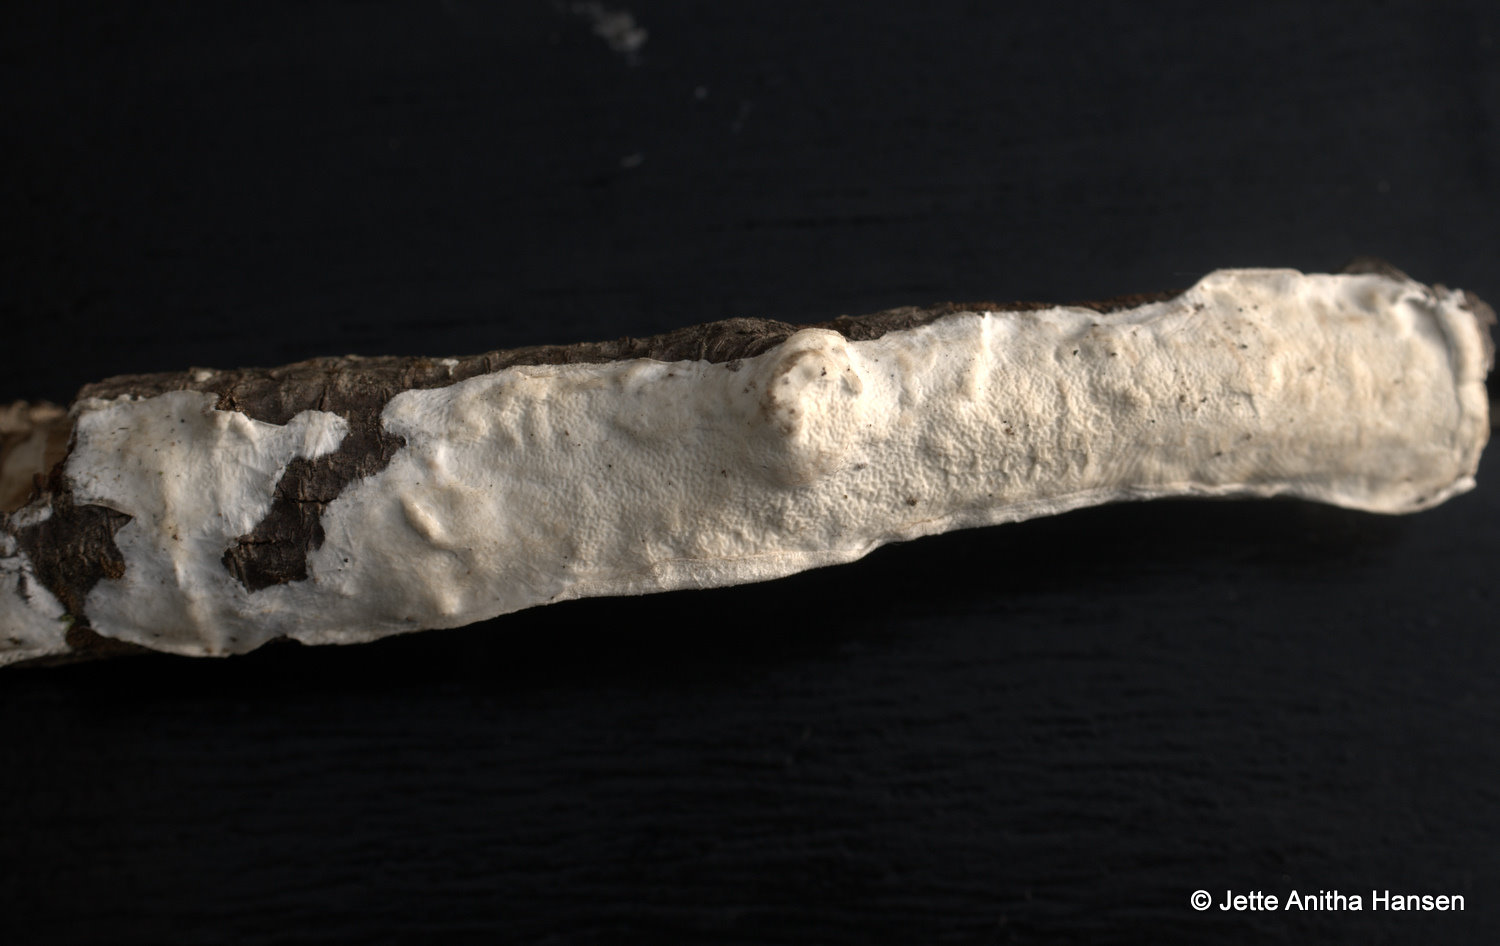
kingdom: Fungi
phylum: Basidiomycota
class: Agaricomycetes
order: Polyporales
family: Irpicaceae
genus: Byssomerulius
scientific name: Byssomerulius corium
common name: læder-åresvamp
